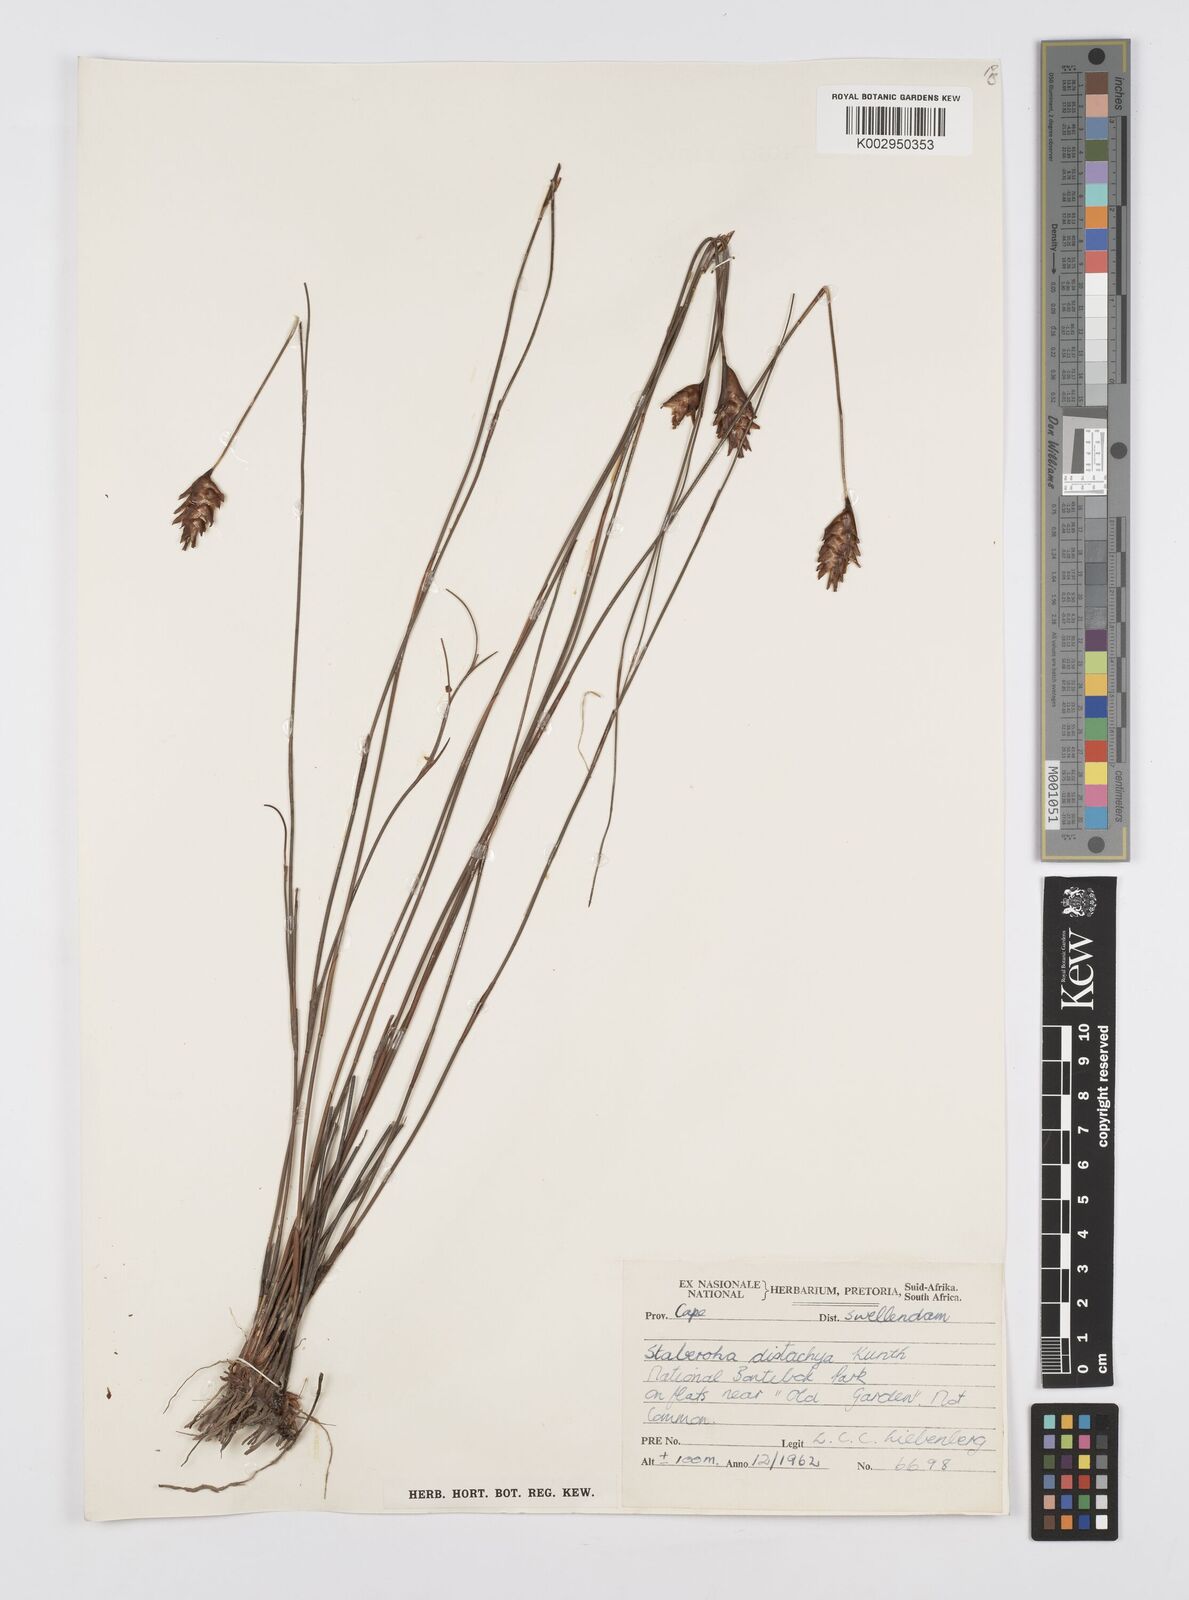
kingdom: Plantae
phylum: Tracheophyta
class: Liliopsida
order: Poales
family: Restionaceae
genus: Staberoha
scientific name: Staberoha distachyos
